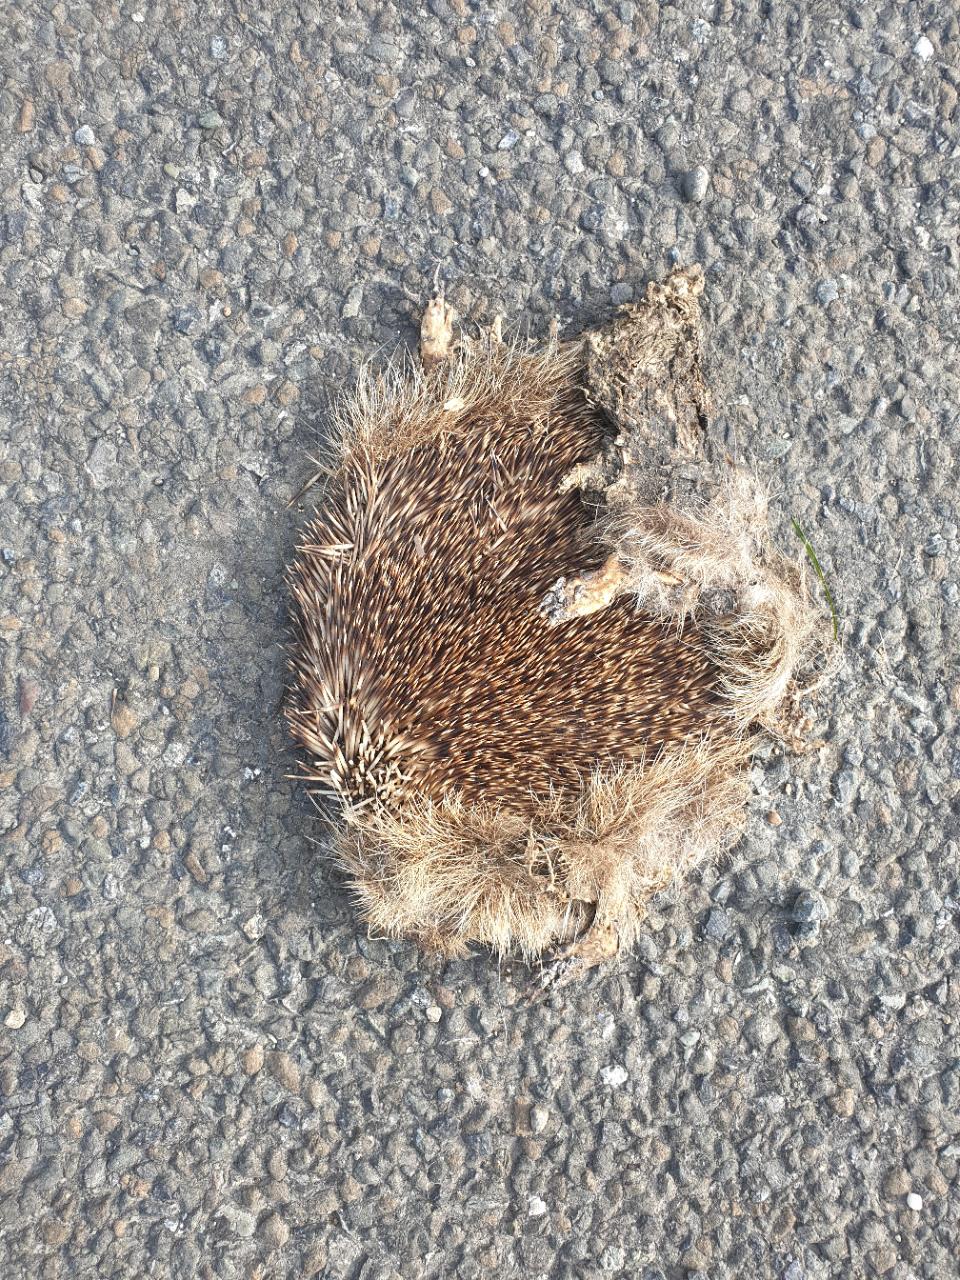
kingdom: Animalia
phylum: Chordata
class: Mammalia
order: Erinaceomorpha
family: Erinaceidae
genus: Erinaceus
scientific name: Erinaceus
